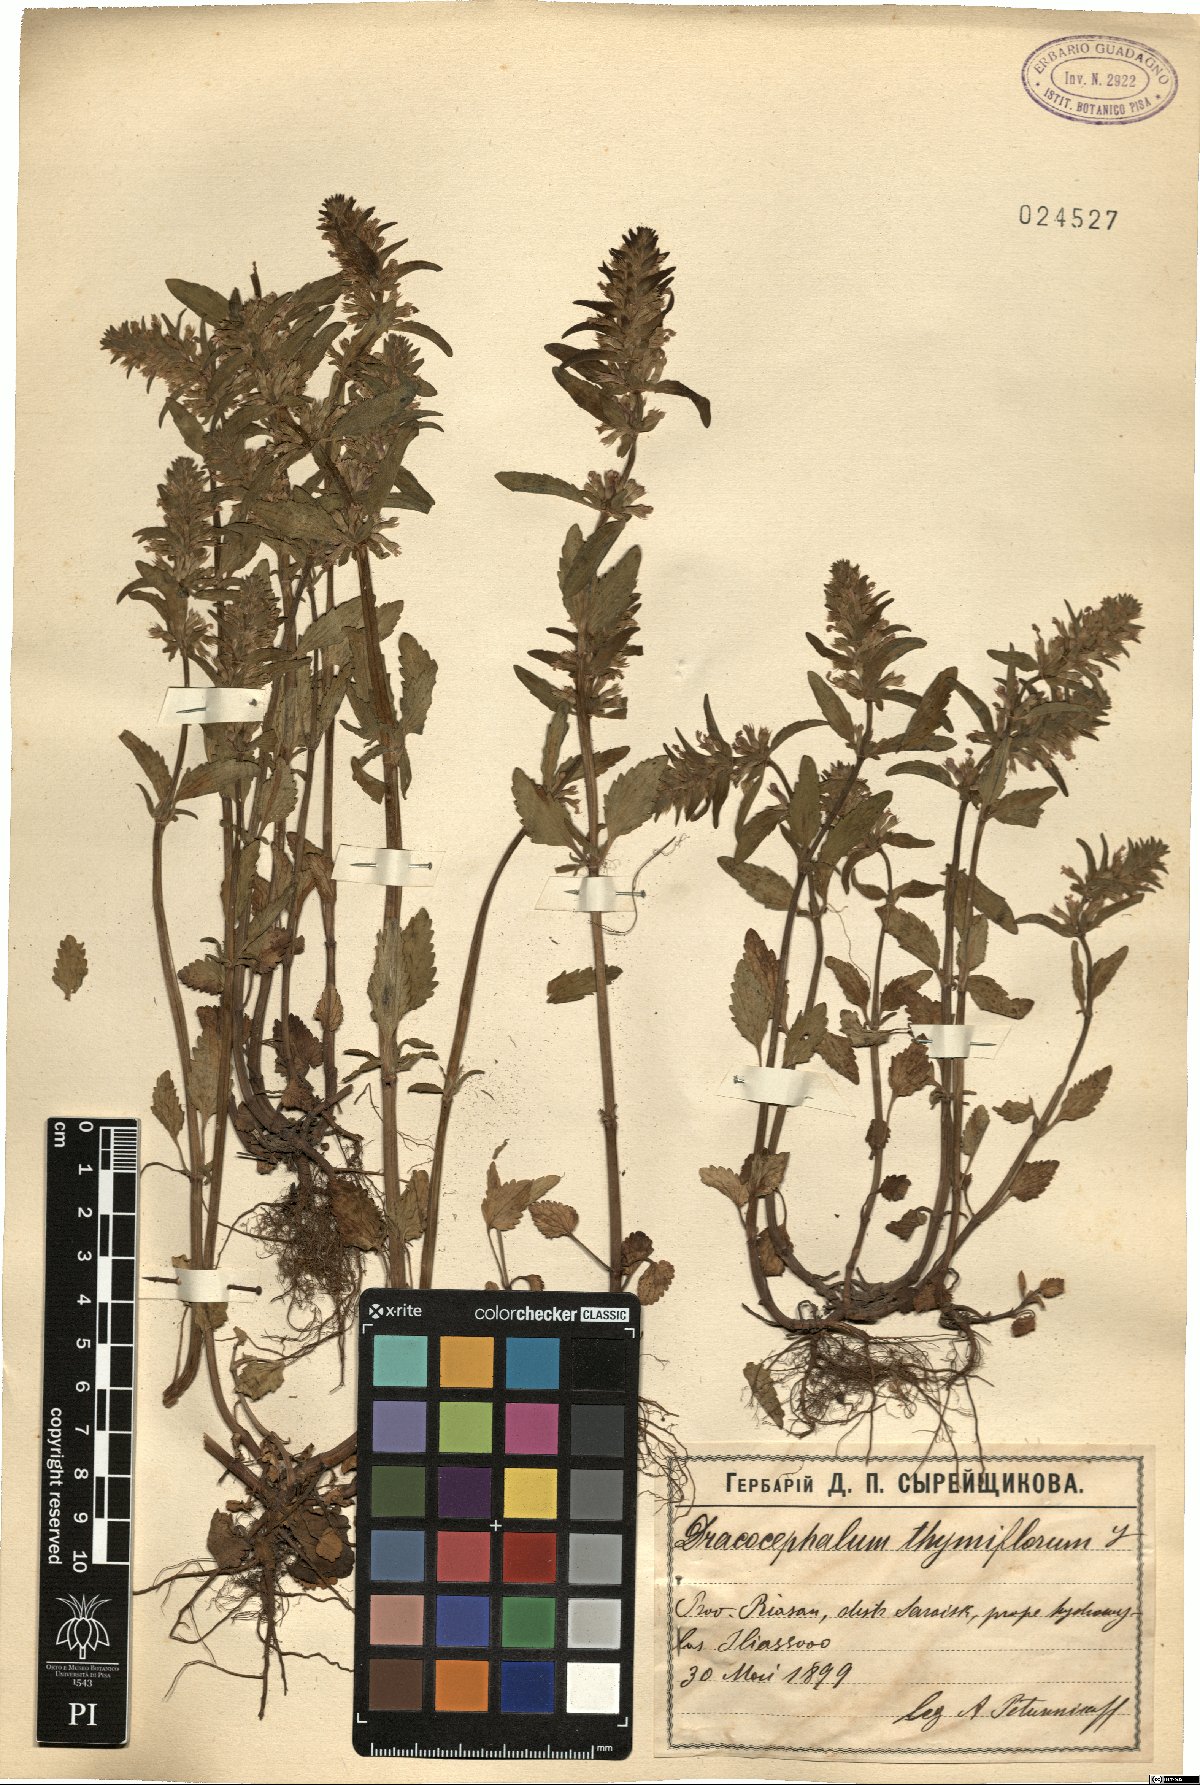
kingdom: Plantae
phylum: Tracheophyta
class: Magnoliopsida
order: Lamiales
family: Lamiaceae
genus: Dracocephalum
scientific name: Dracocephalum thymiflorum
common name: Thymeleaf dragonhead
